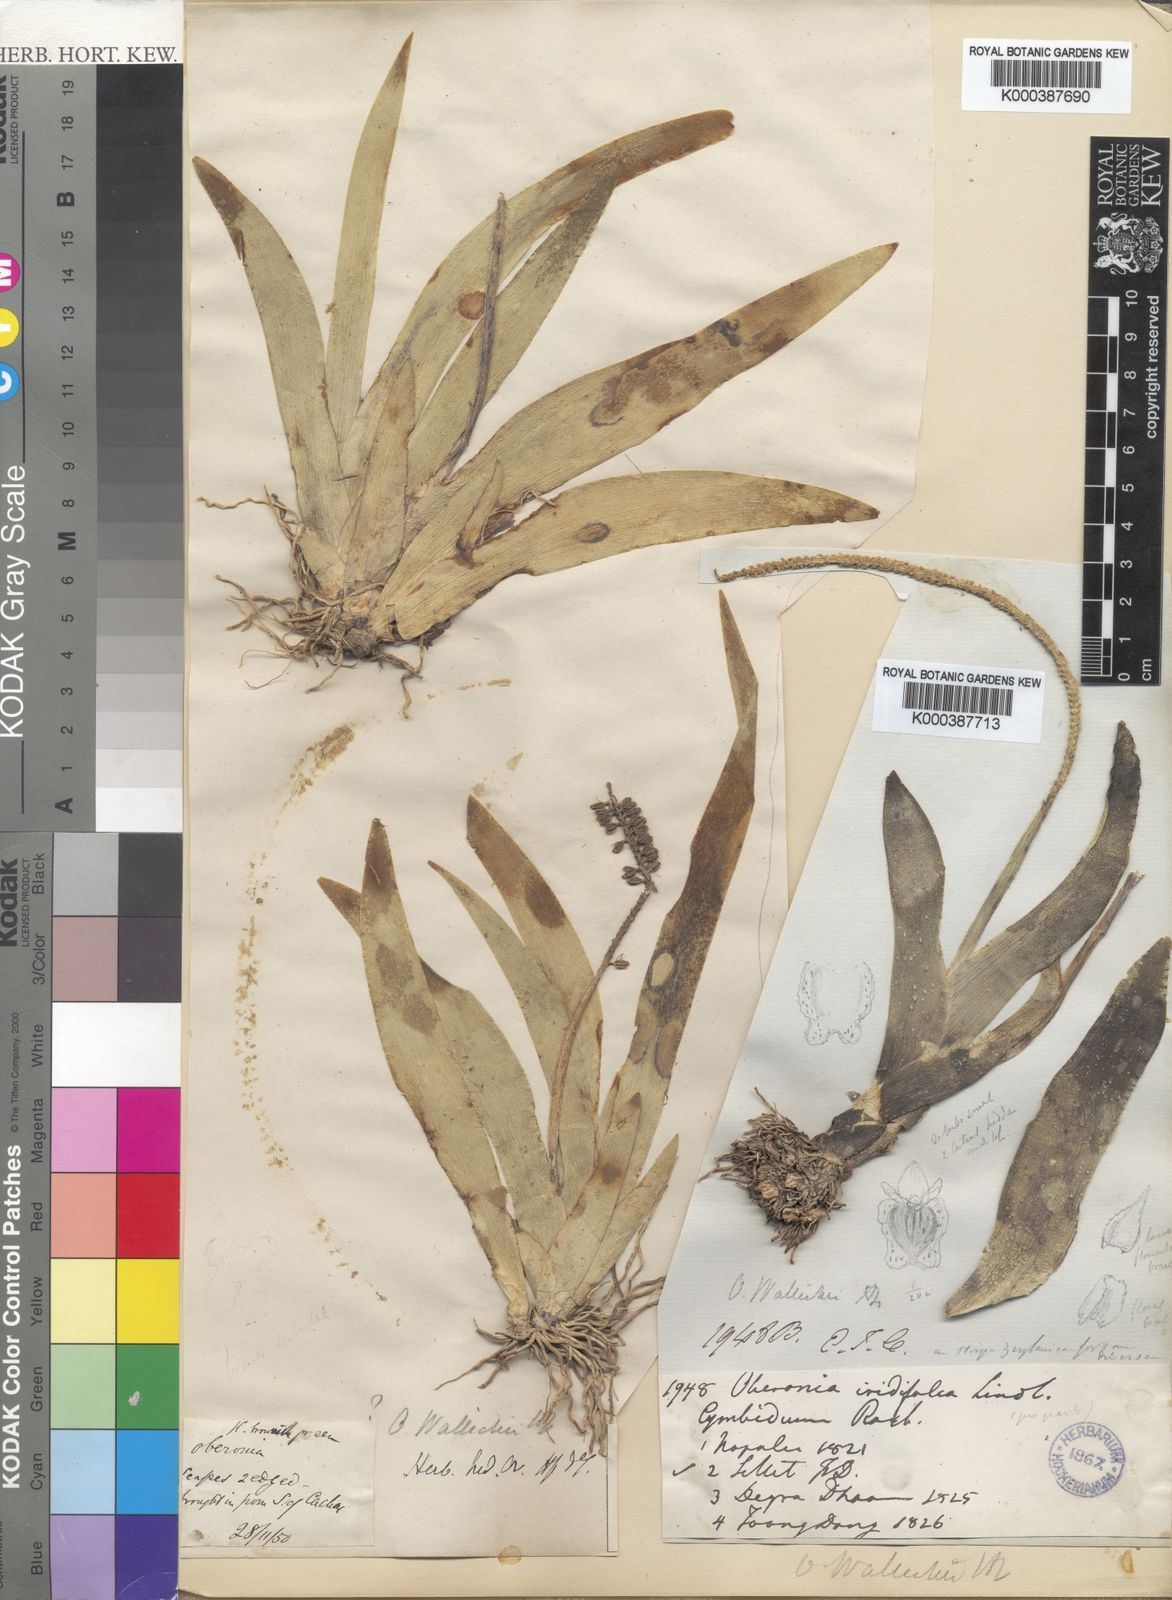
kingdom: Plantae
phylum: Tracheophyta
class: Liliopsida
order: Asparagales
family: Orchidaceae
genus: Oberonia
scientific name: Oberonia brunoniana
